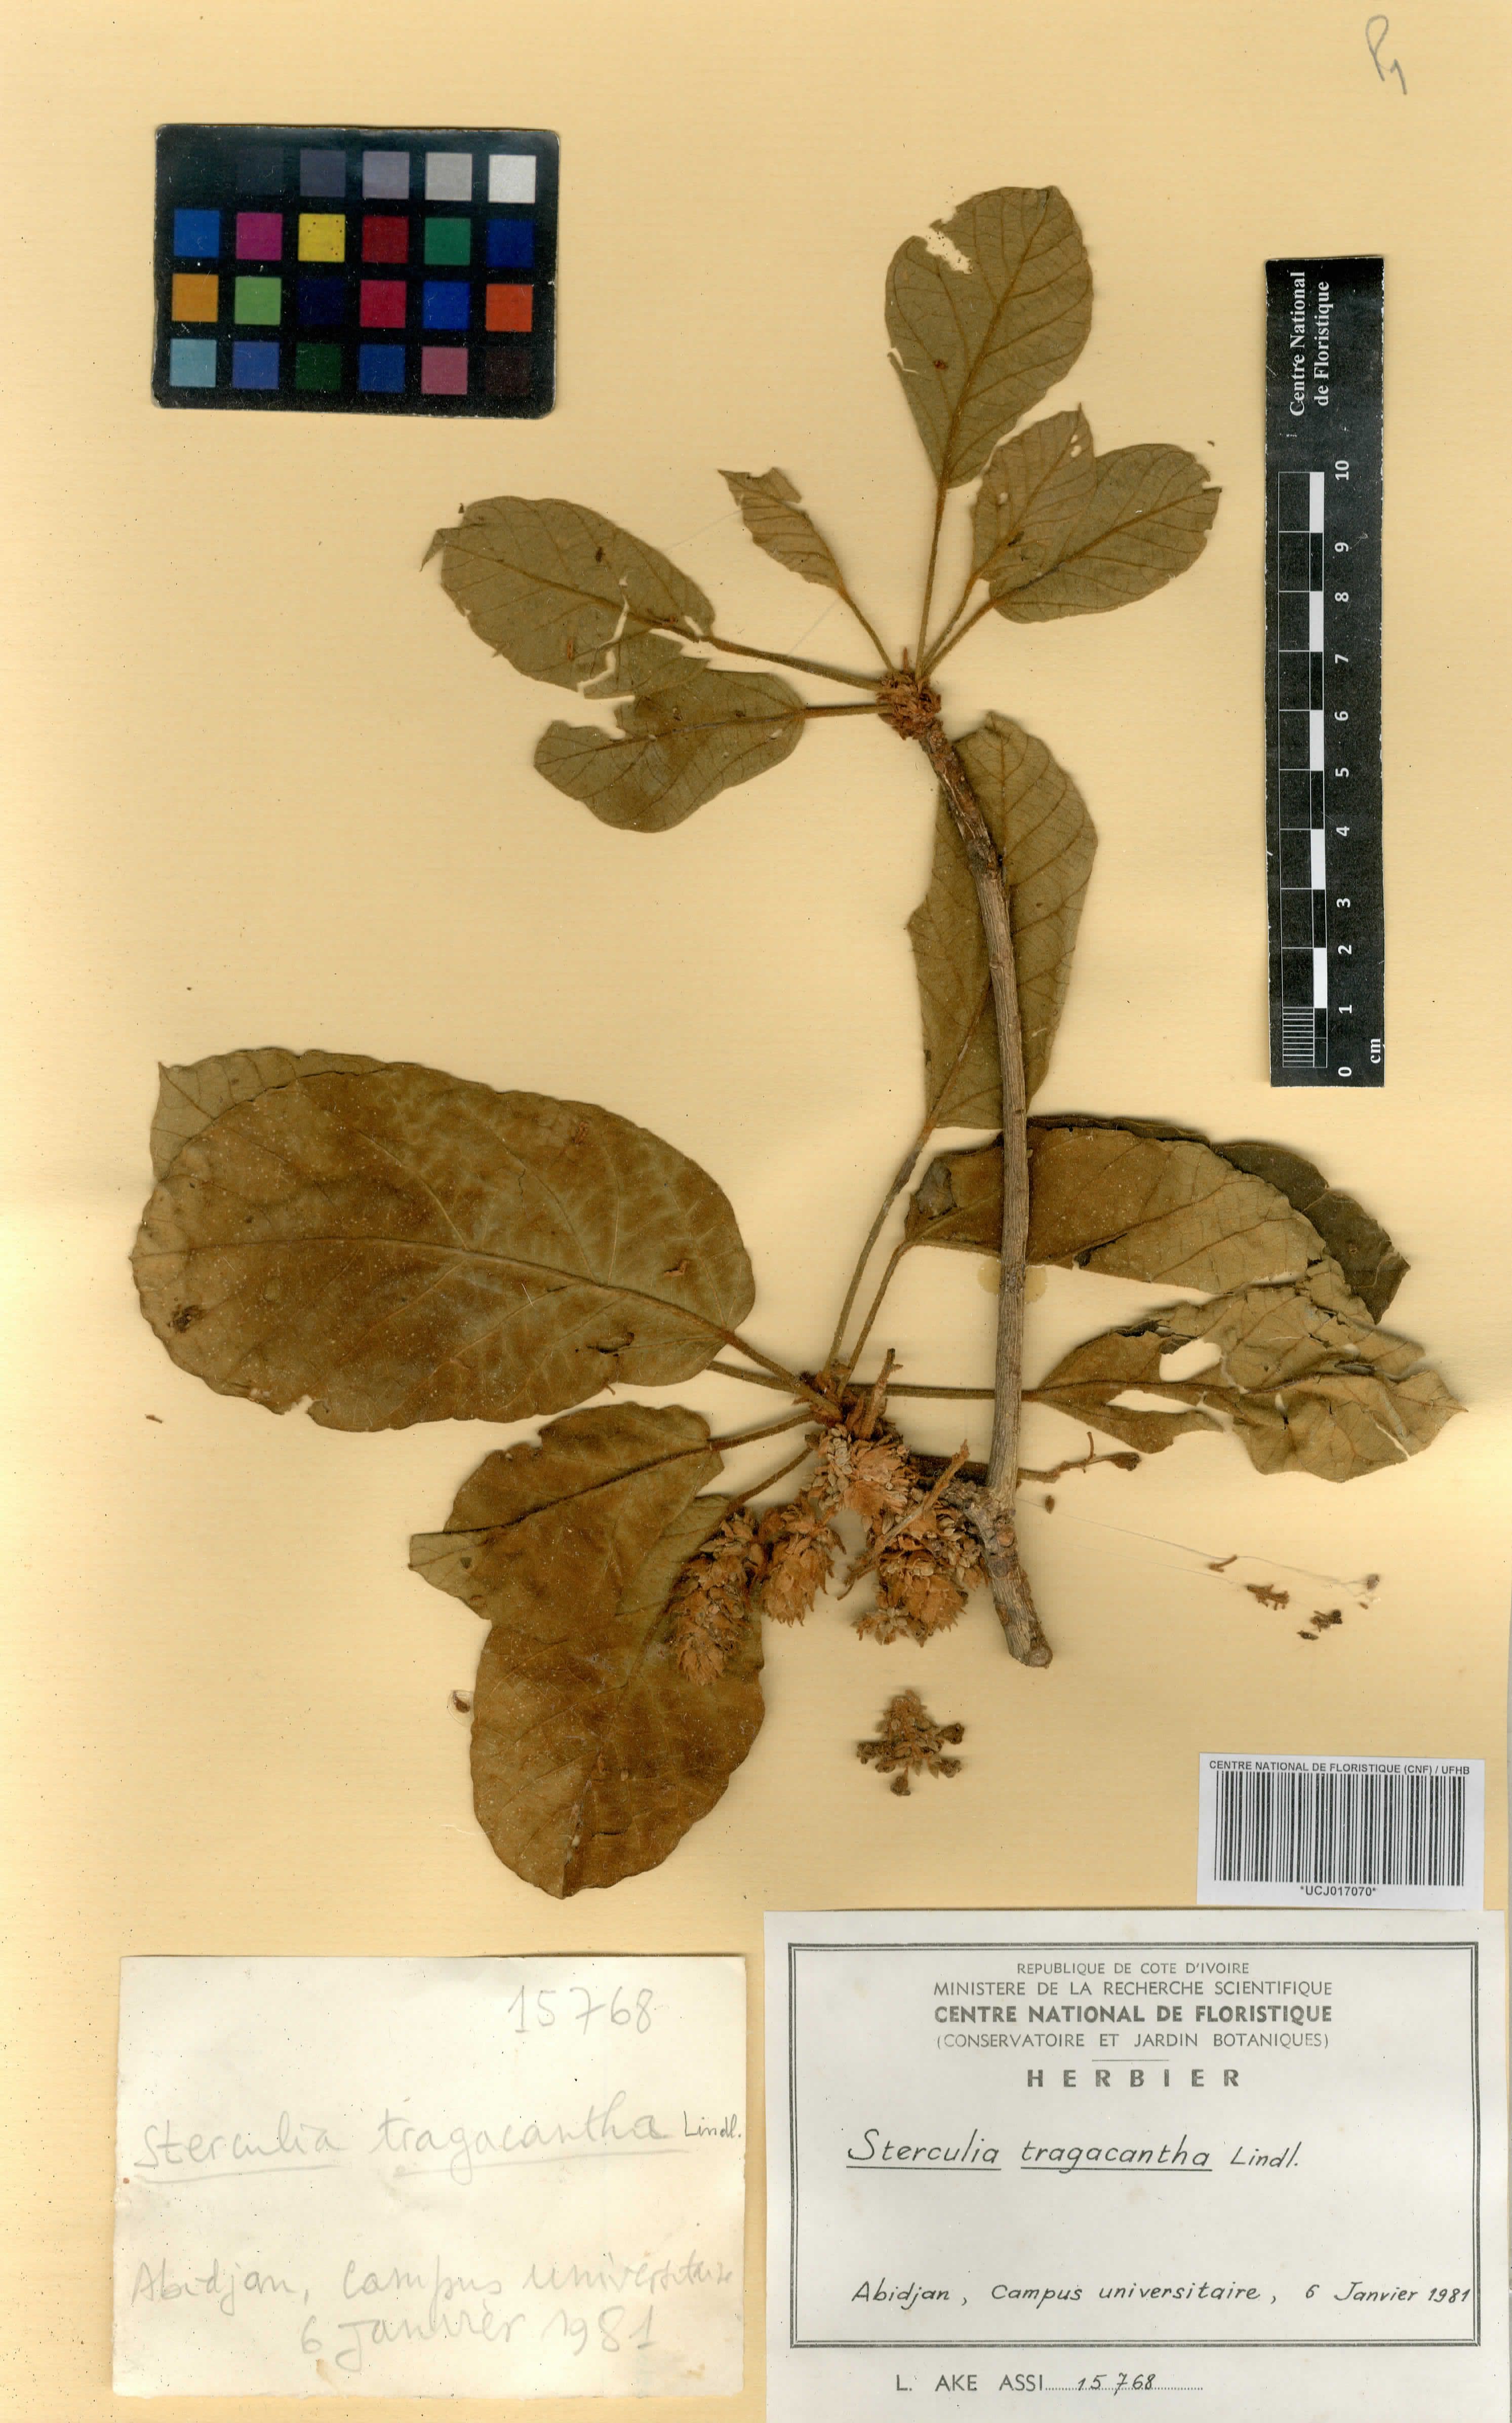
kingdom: Plantae
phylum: Tracheophyta
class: Magnoliopsida
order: Malvales
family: Malvaceae
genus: Sterculia
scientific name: Sterculia tragacantha
